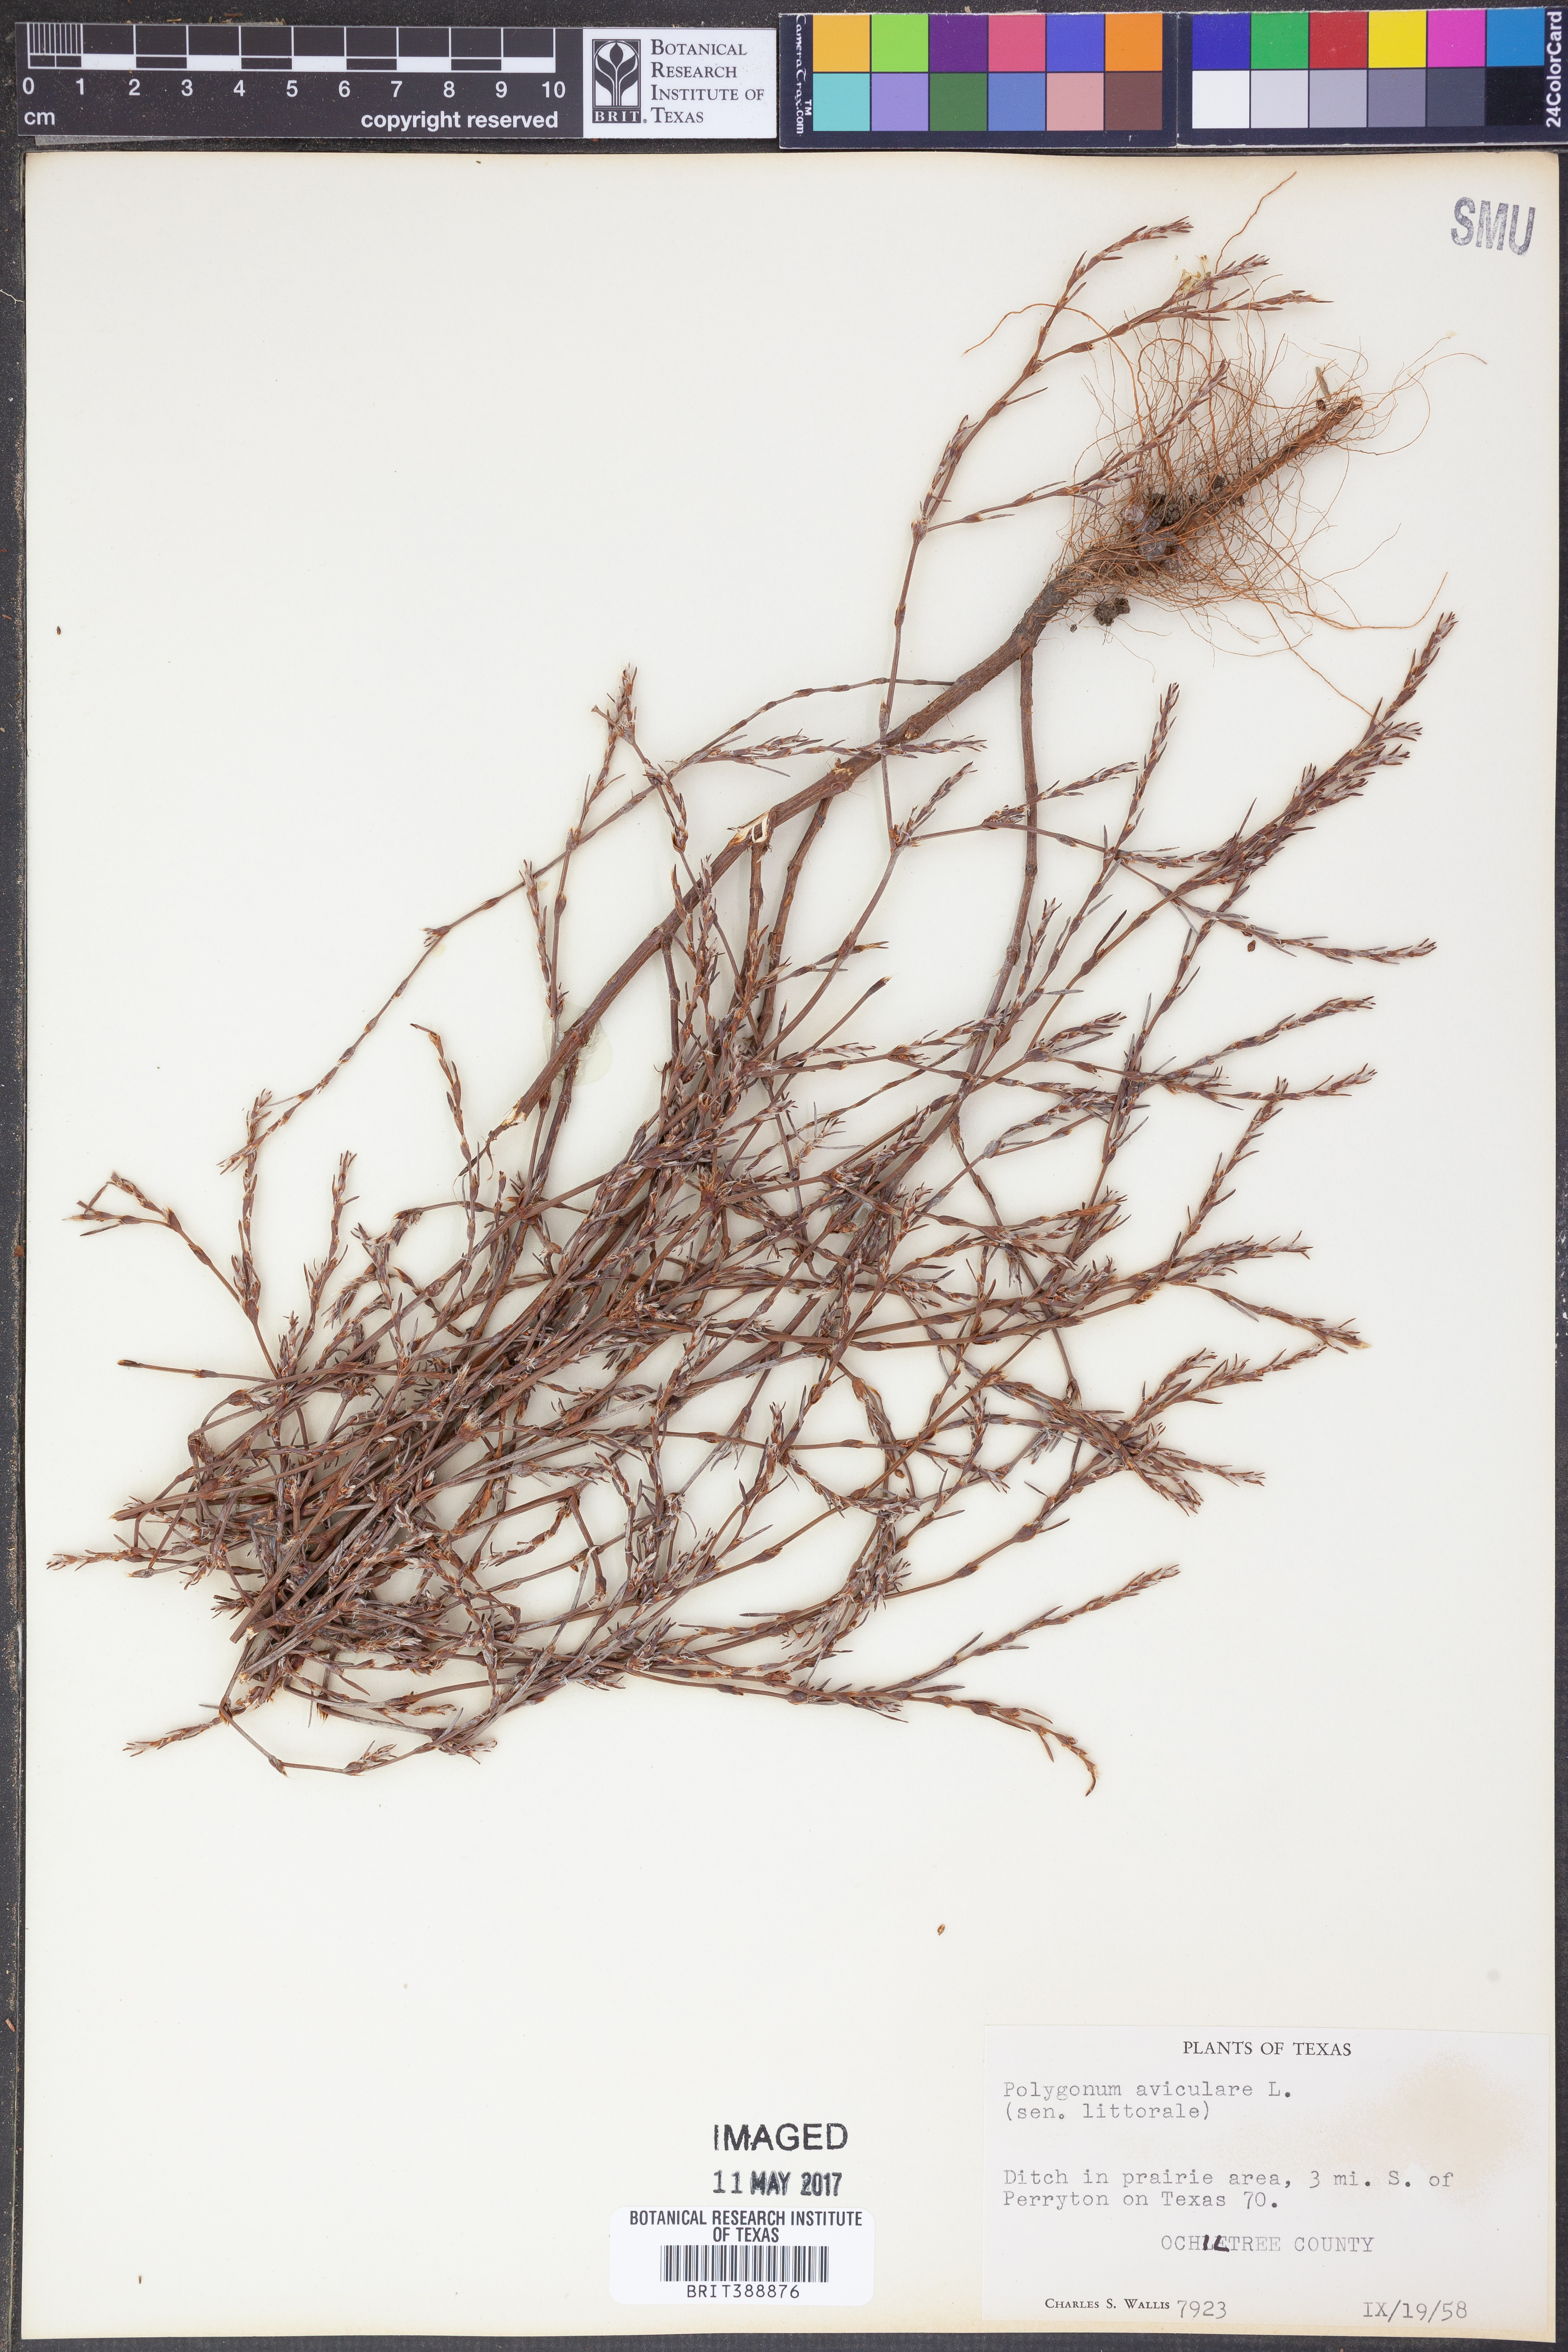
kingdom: Plantae
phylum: Tracheophyta
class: Magnoliopsida
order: Caryophyllales
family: Polygonaceae
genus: Polygonum
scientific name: Polygonum aviculare
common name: Prostrate knotweed
